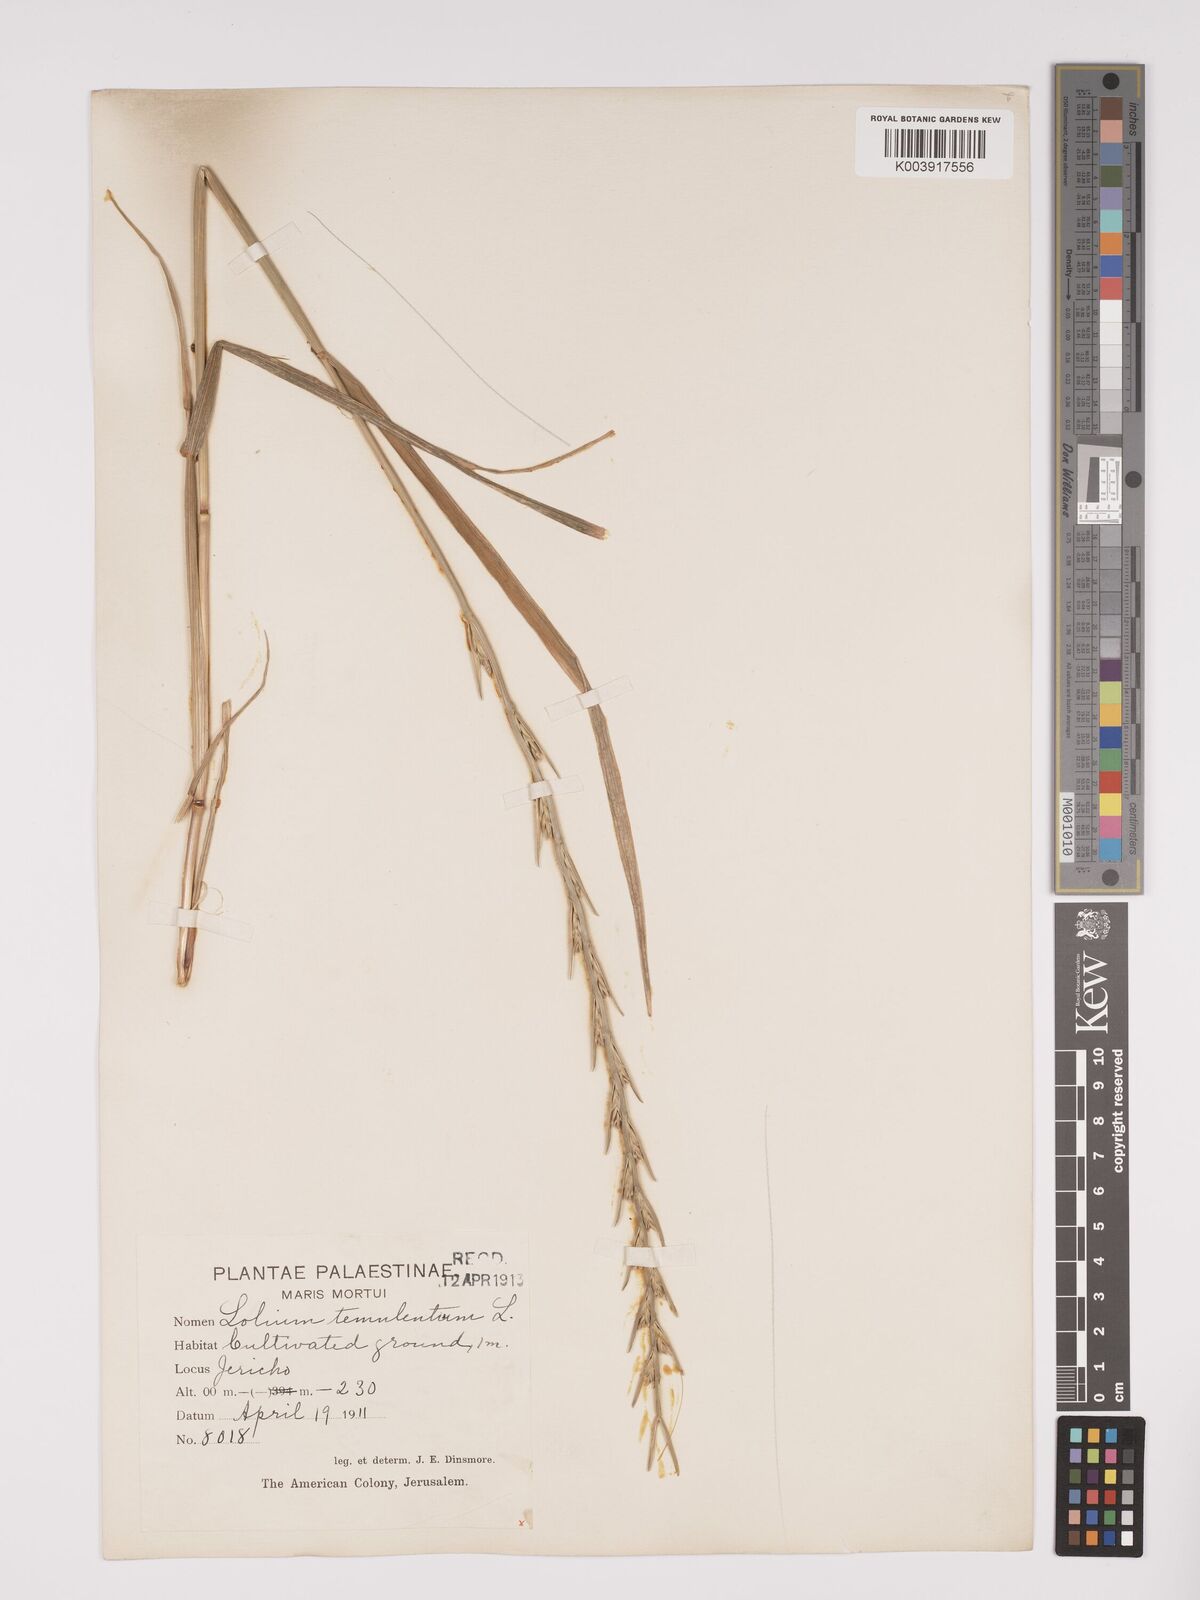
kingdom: Plantae
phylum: Tracheophyta
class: Liliopsida
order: Poales
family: Poaceae
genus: Lolium
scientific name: Lolium temulentum
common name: Darnel
